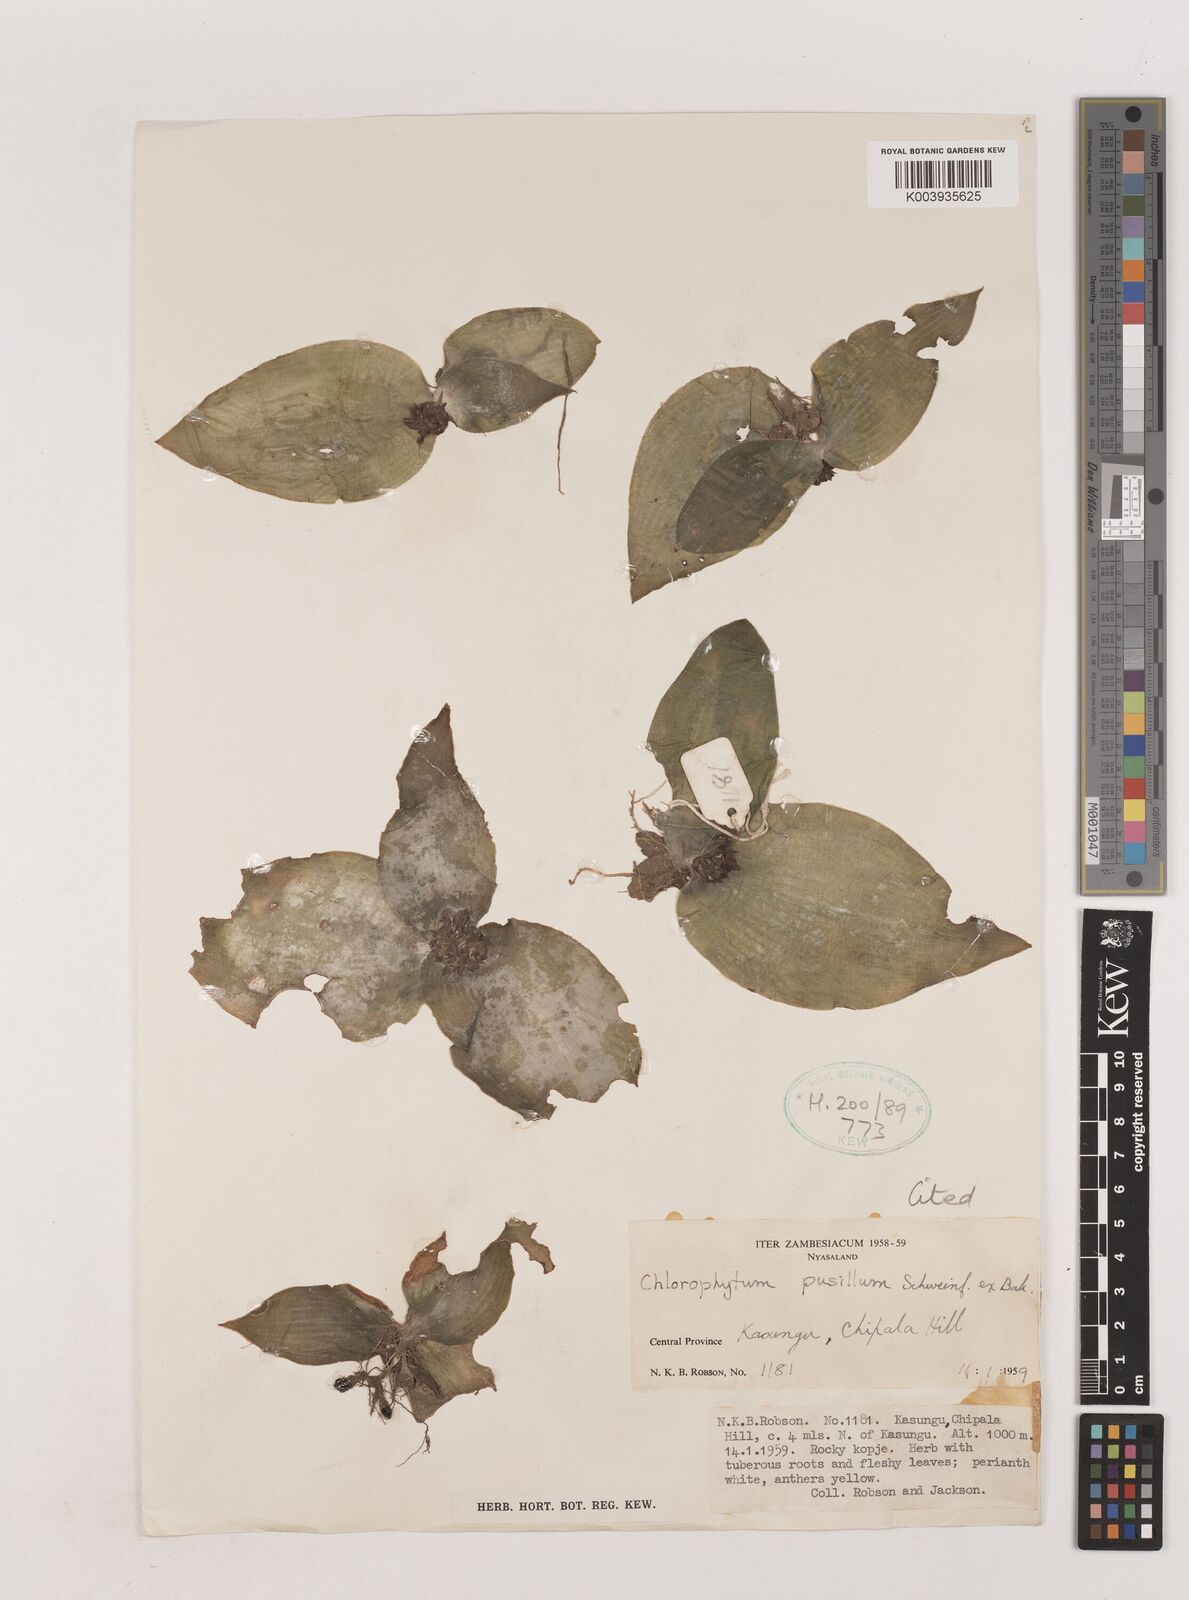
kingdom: Plantae
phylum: Tracheophyta
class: Liliopsida
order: Asparagales
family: Asparagaceae
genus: Chlorophytum
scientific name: Chlorophytum pusillum
